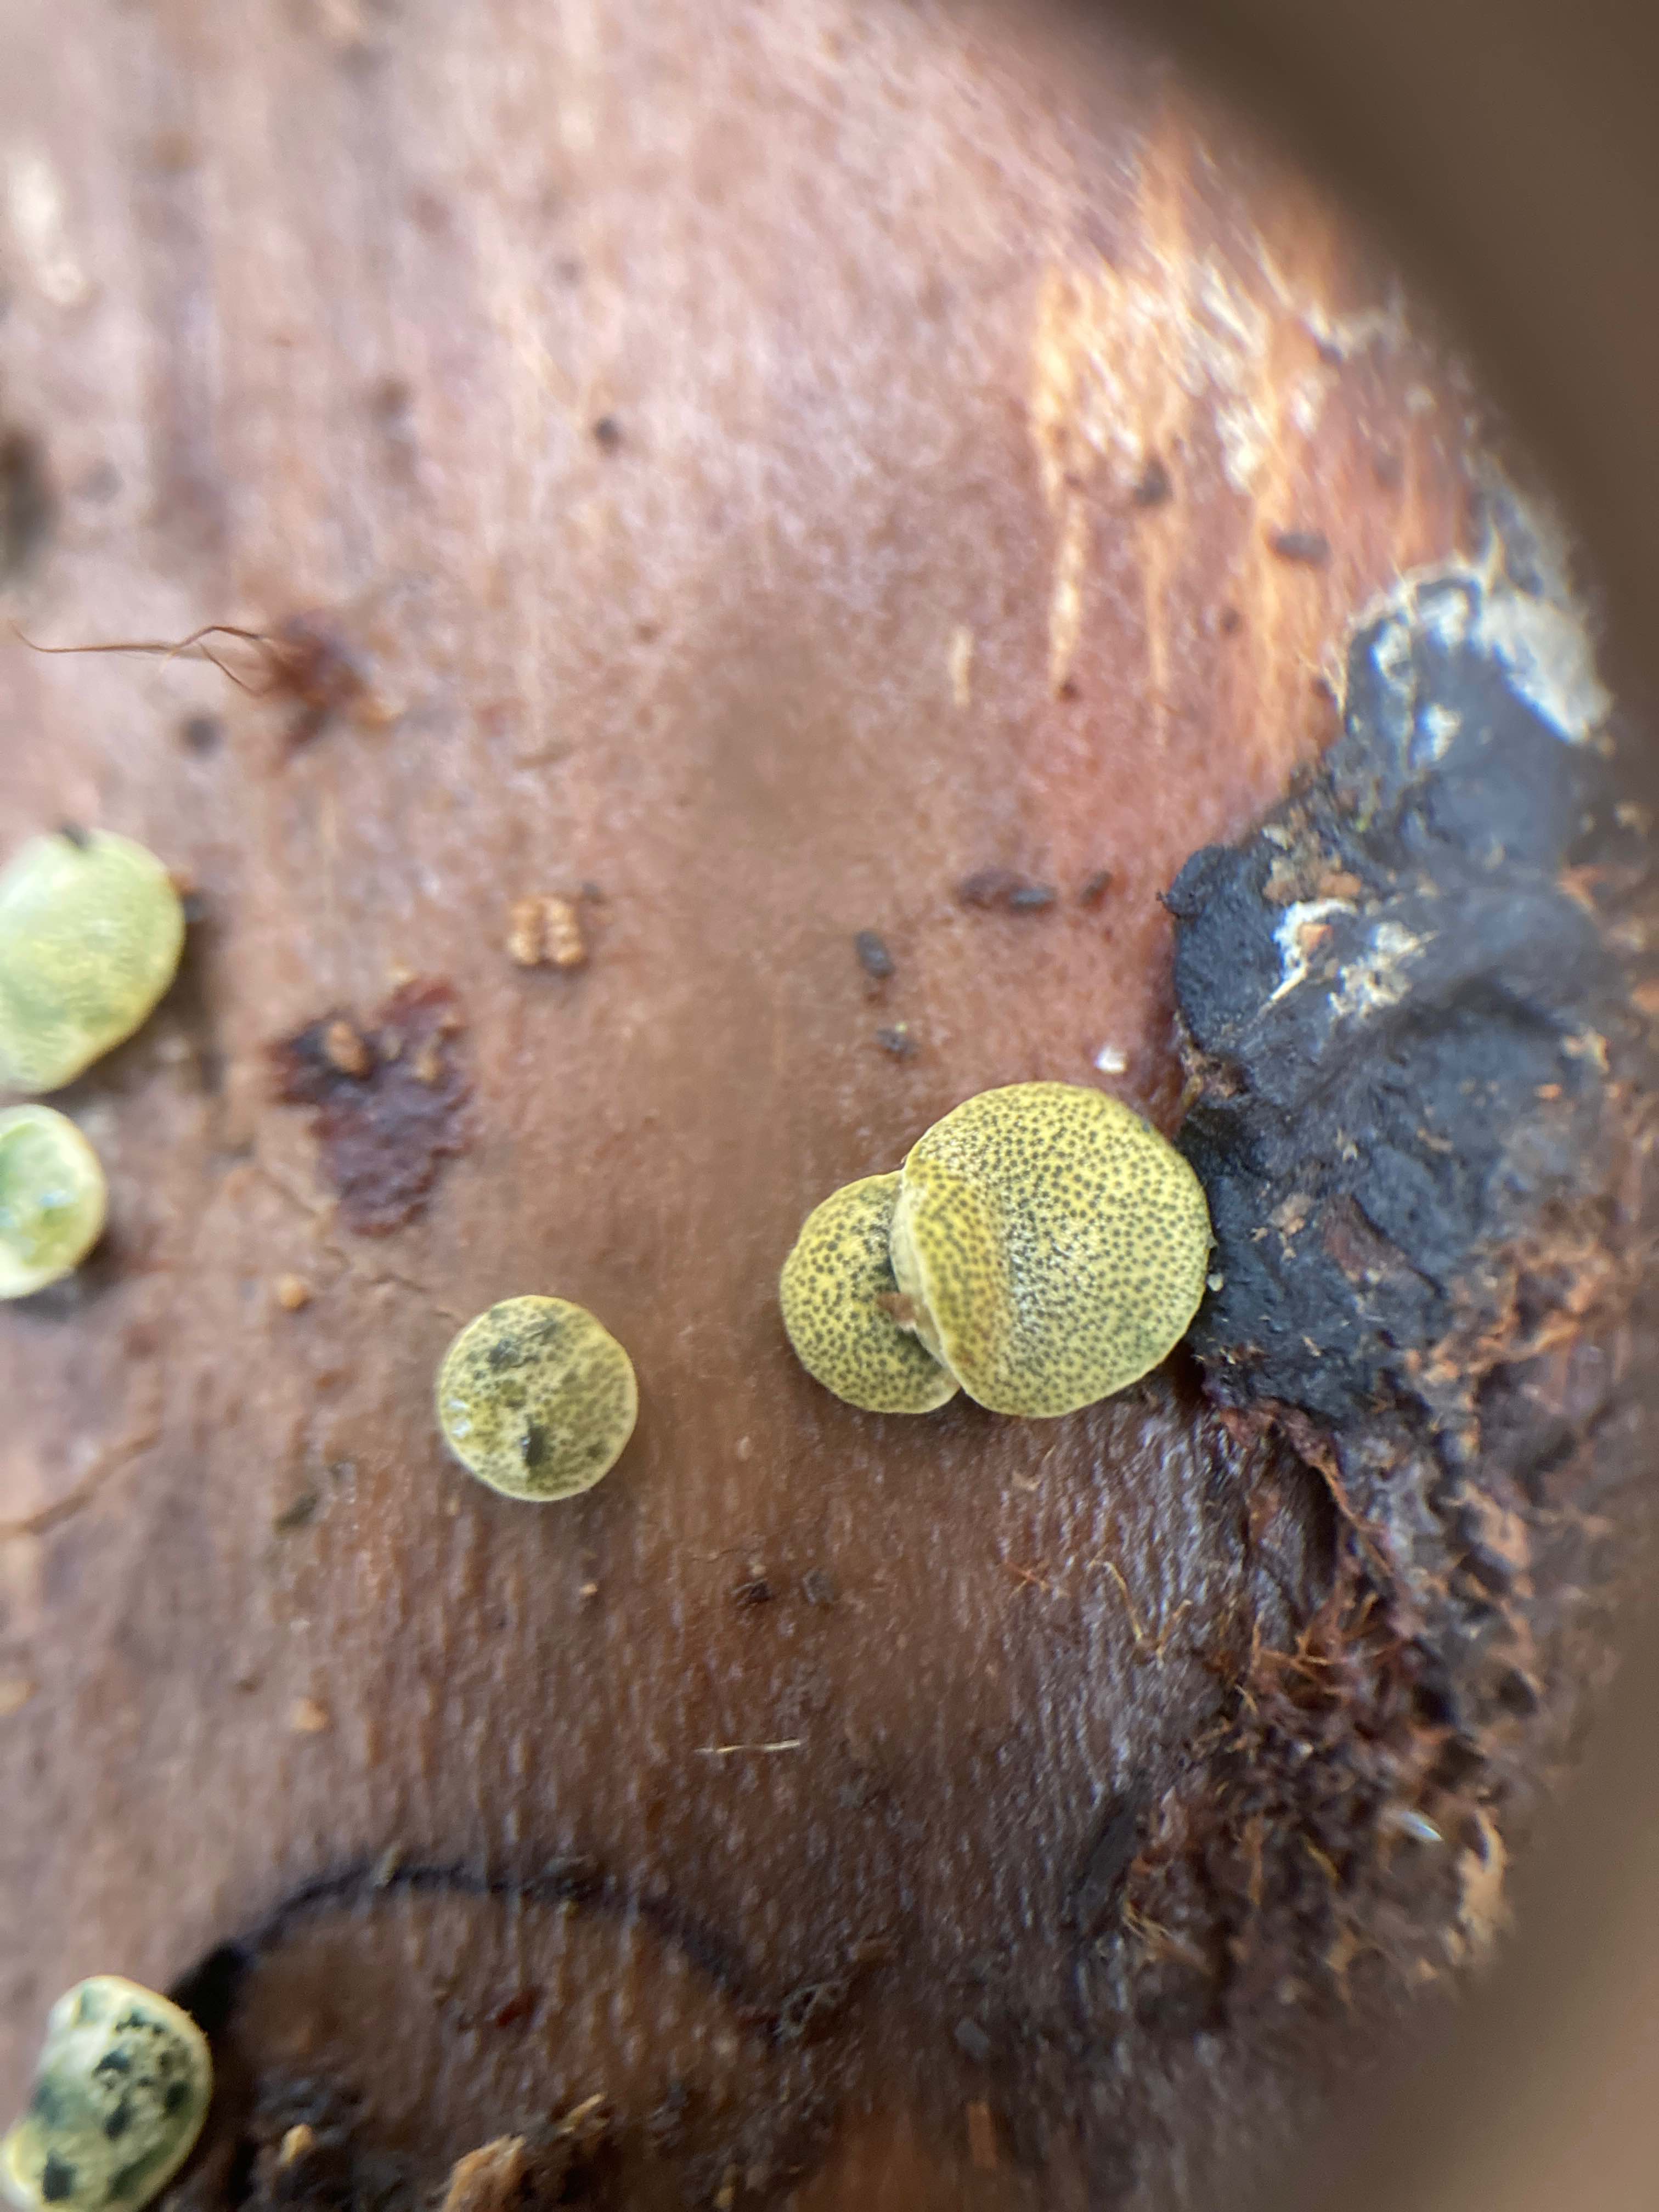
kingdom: Fungi
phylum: Ascomycota
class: Sordariomycetes
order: Hypocreales
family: Hypocreaceae
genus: Trichoderma
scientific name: Trichoderma aureoviride
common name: æggegul kødkerne
